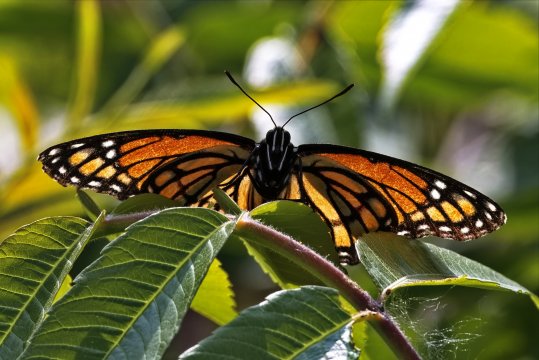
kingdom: Animalia
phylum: Arthropoda
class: Insecta
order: Lepidoptera
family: Nymphalidae
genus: Limenitis
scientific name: Limenitis archippus
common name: Viceroy
